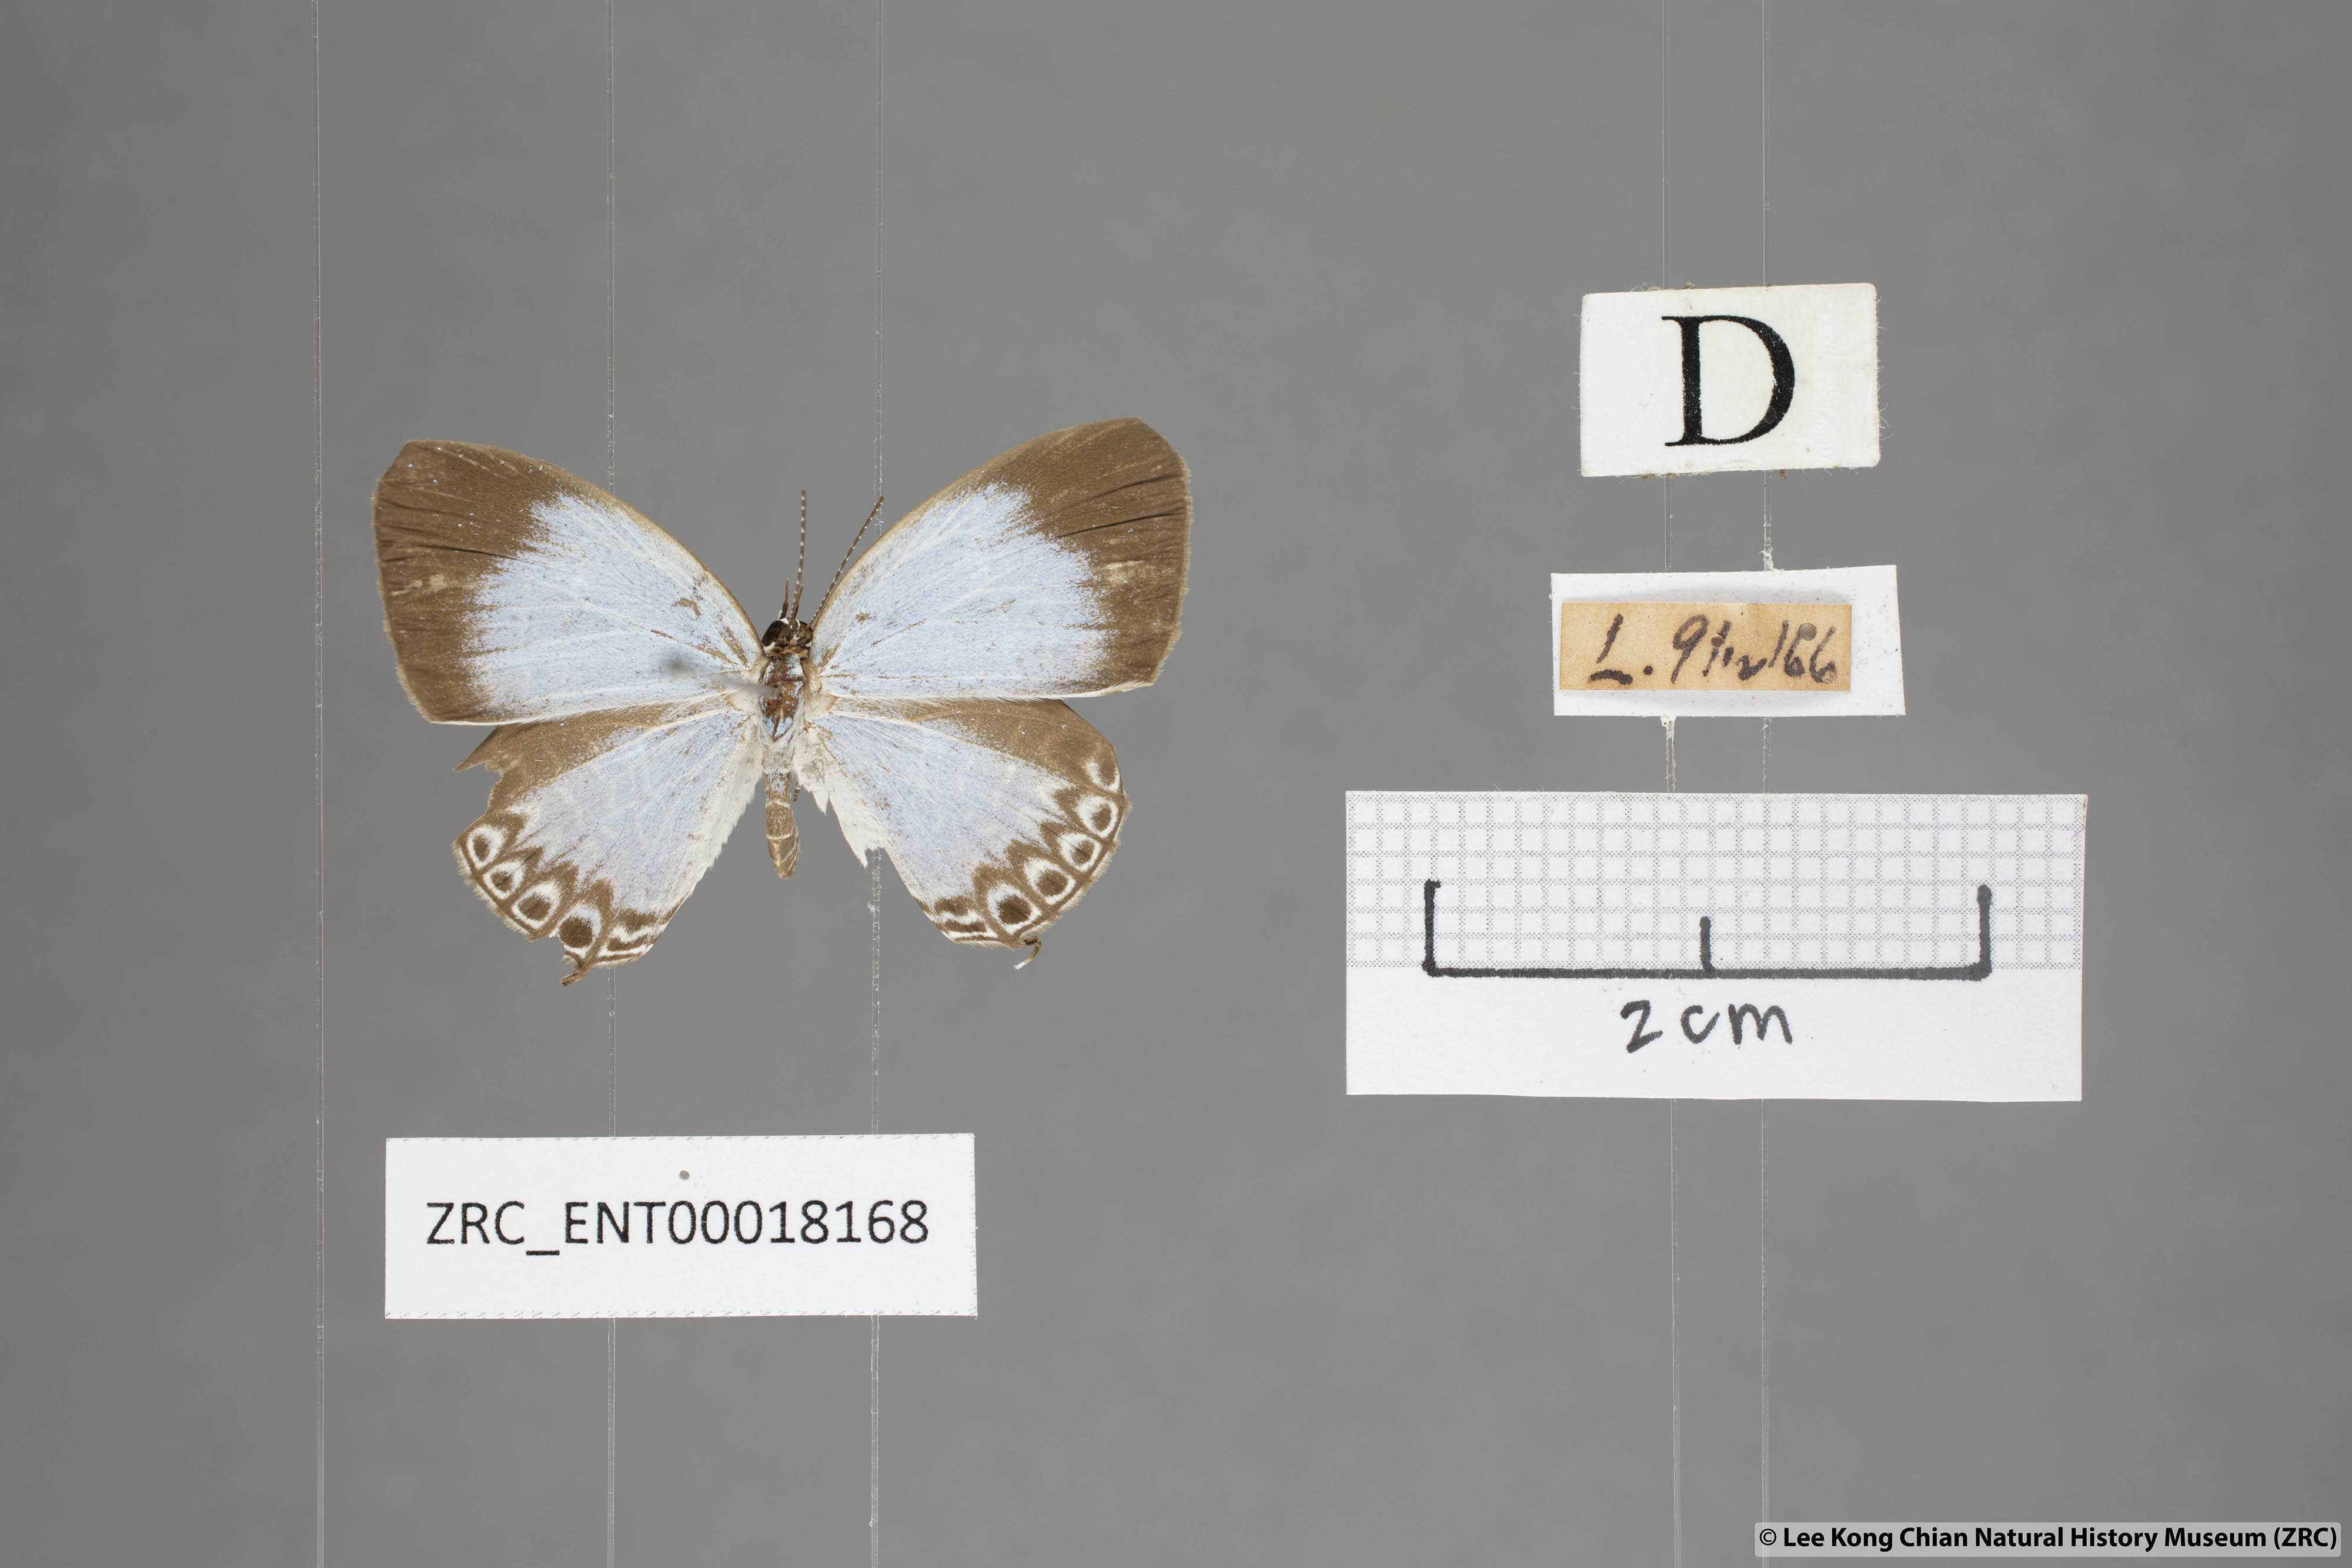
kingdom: Animalia
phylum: Arthropoda
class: Insecta
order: Lepidoptera
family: Lycaenidae
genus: Jamides
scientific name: Jamides
